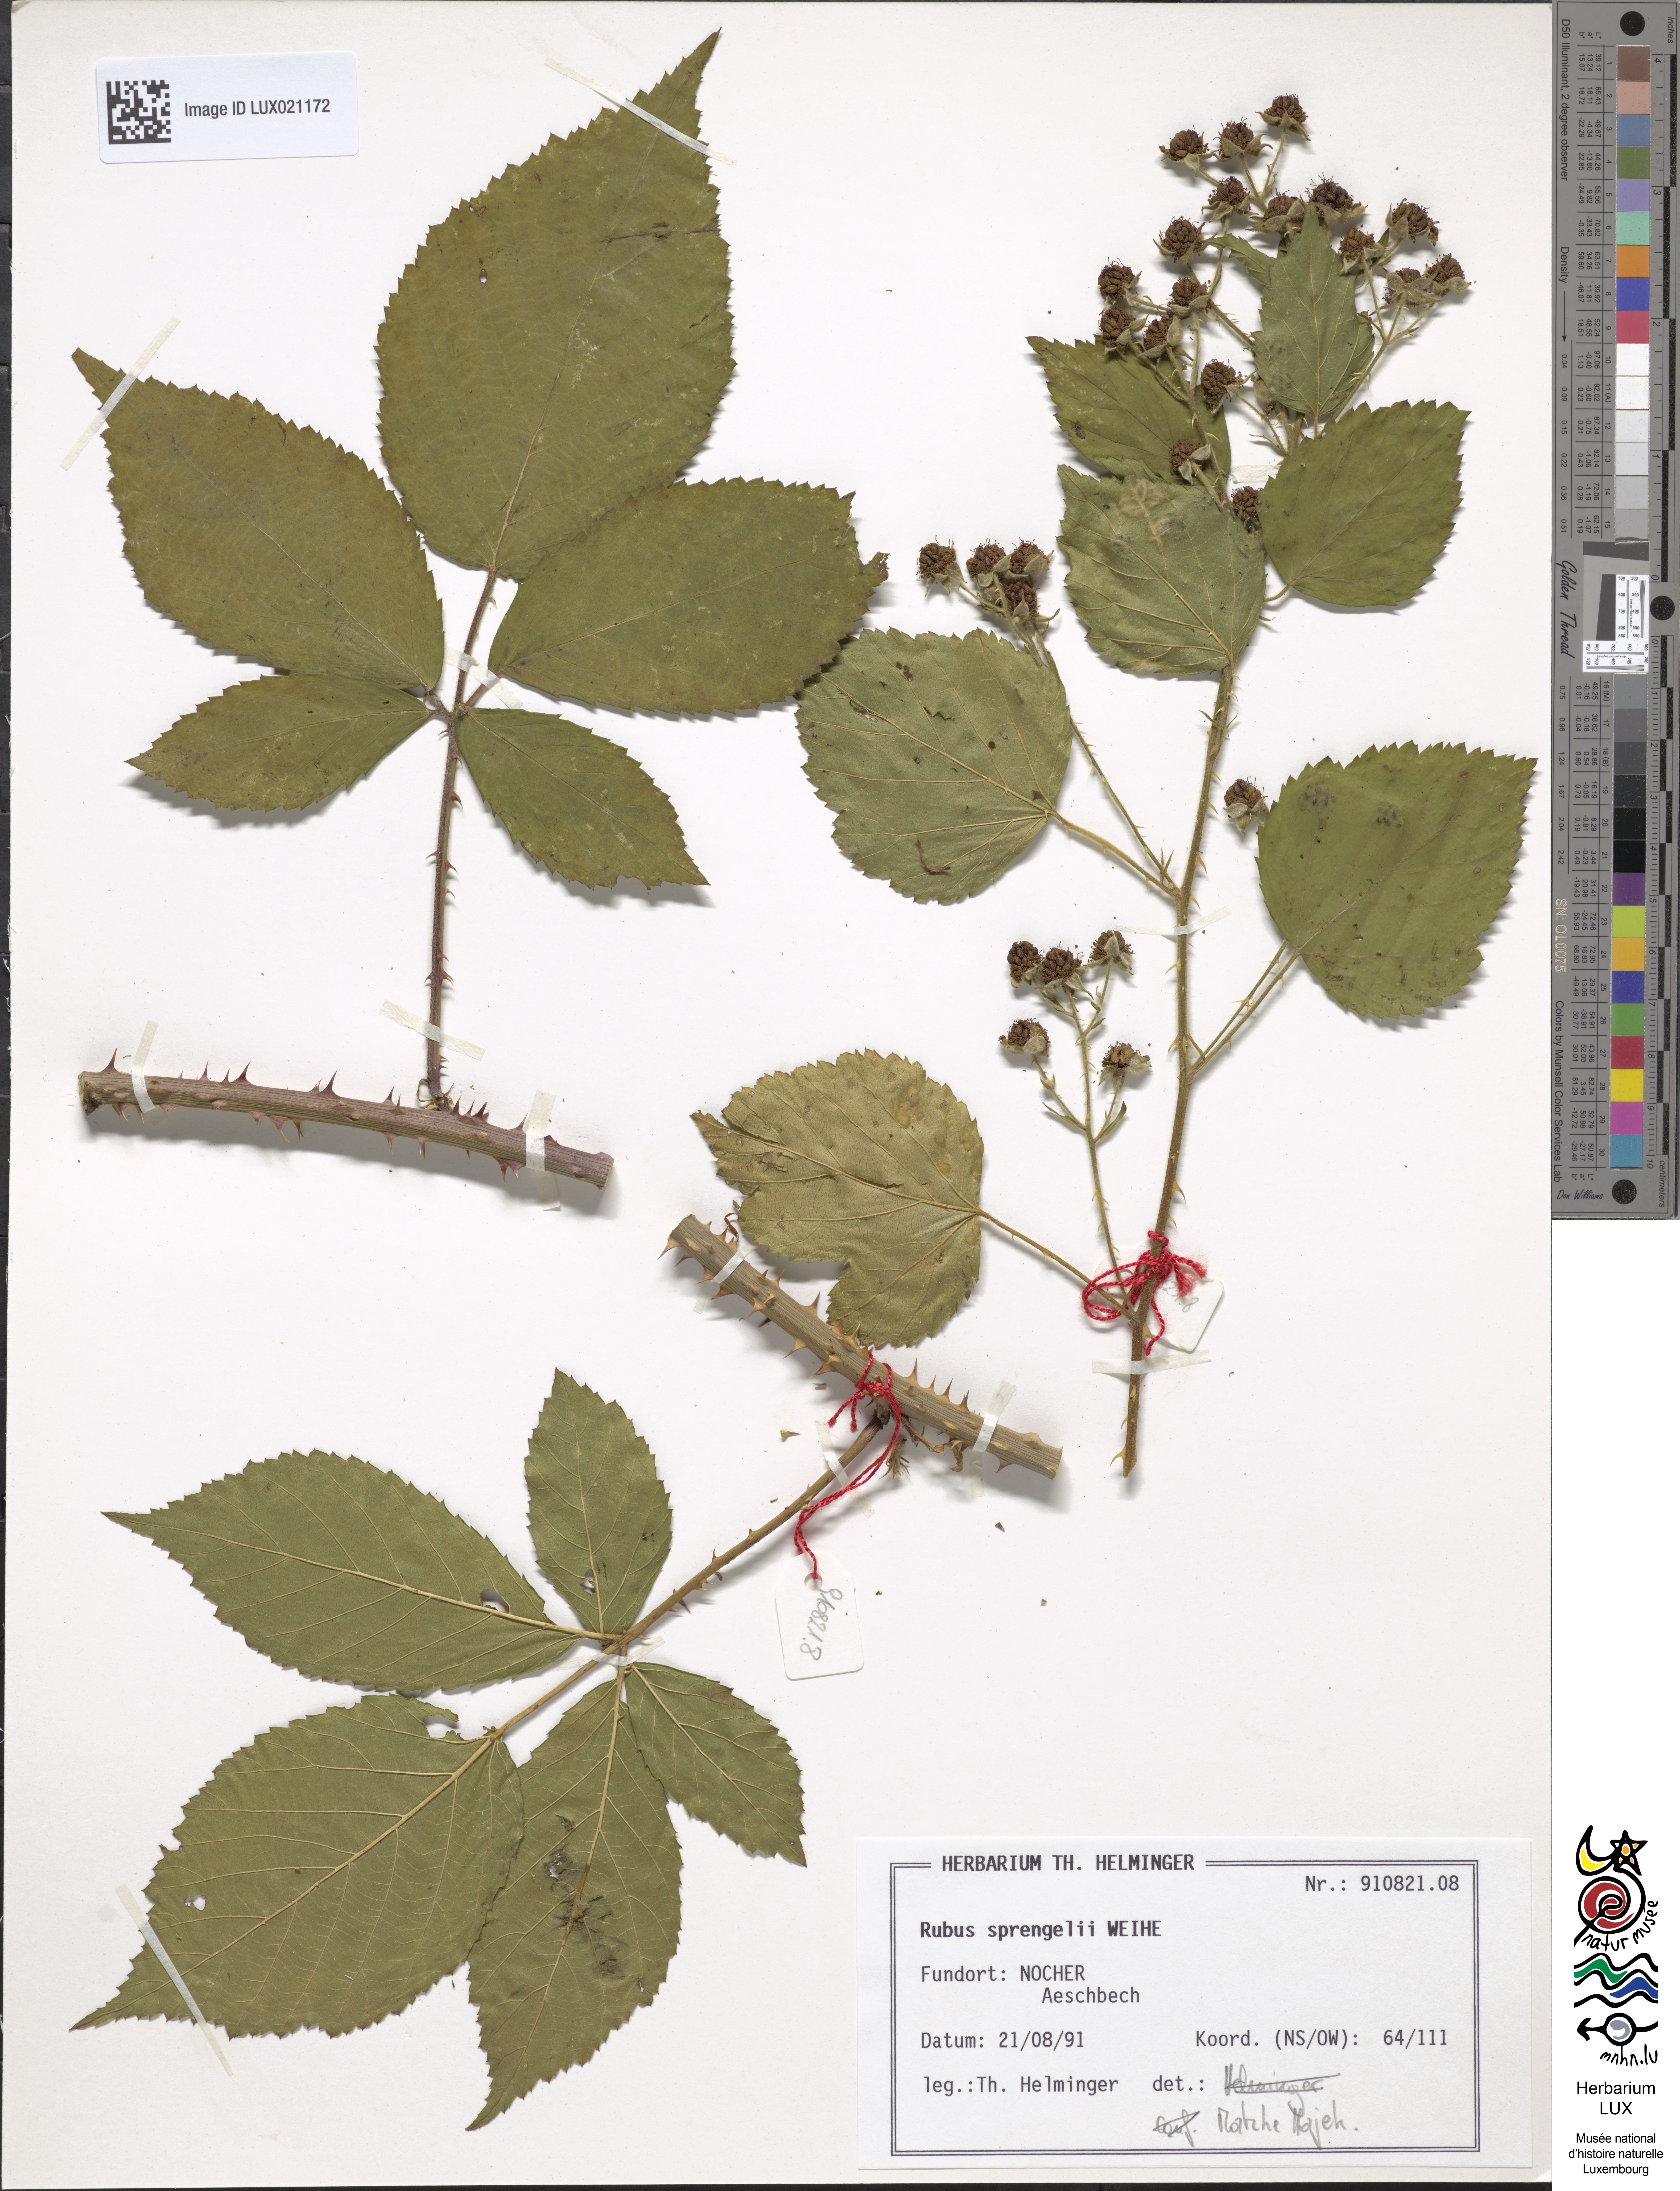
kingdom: Plantae
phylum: Tracheophyta
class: Magnoliopsida
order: Rosales
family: Rosaceae
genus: Rubus
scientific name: Rubus sprengelii
